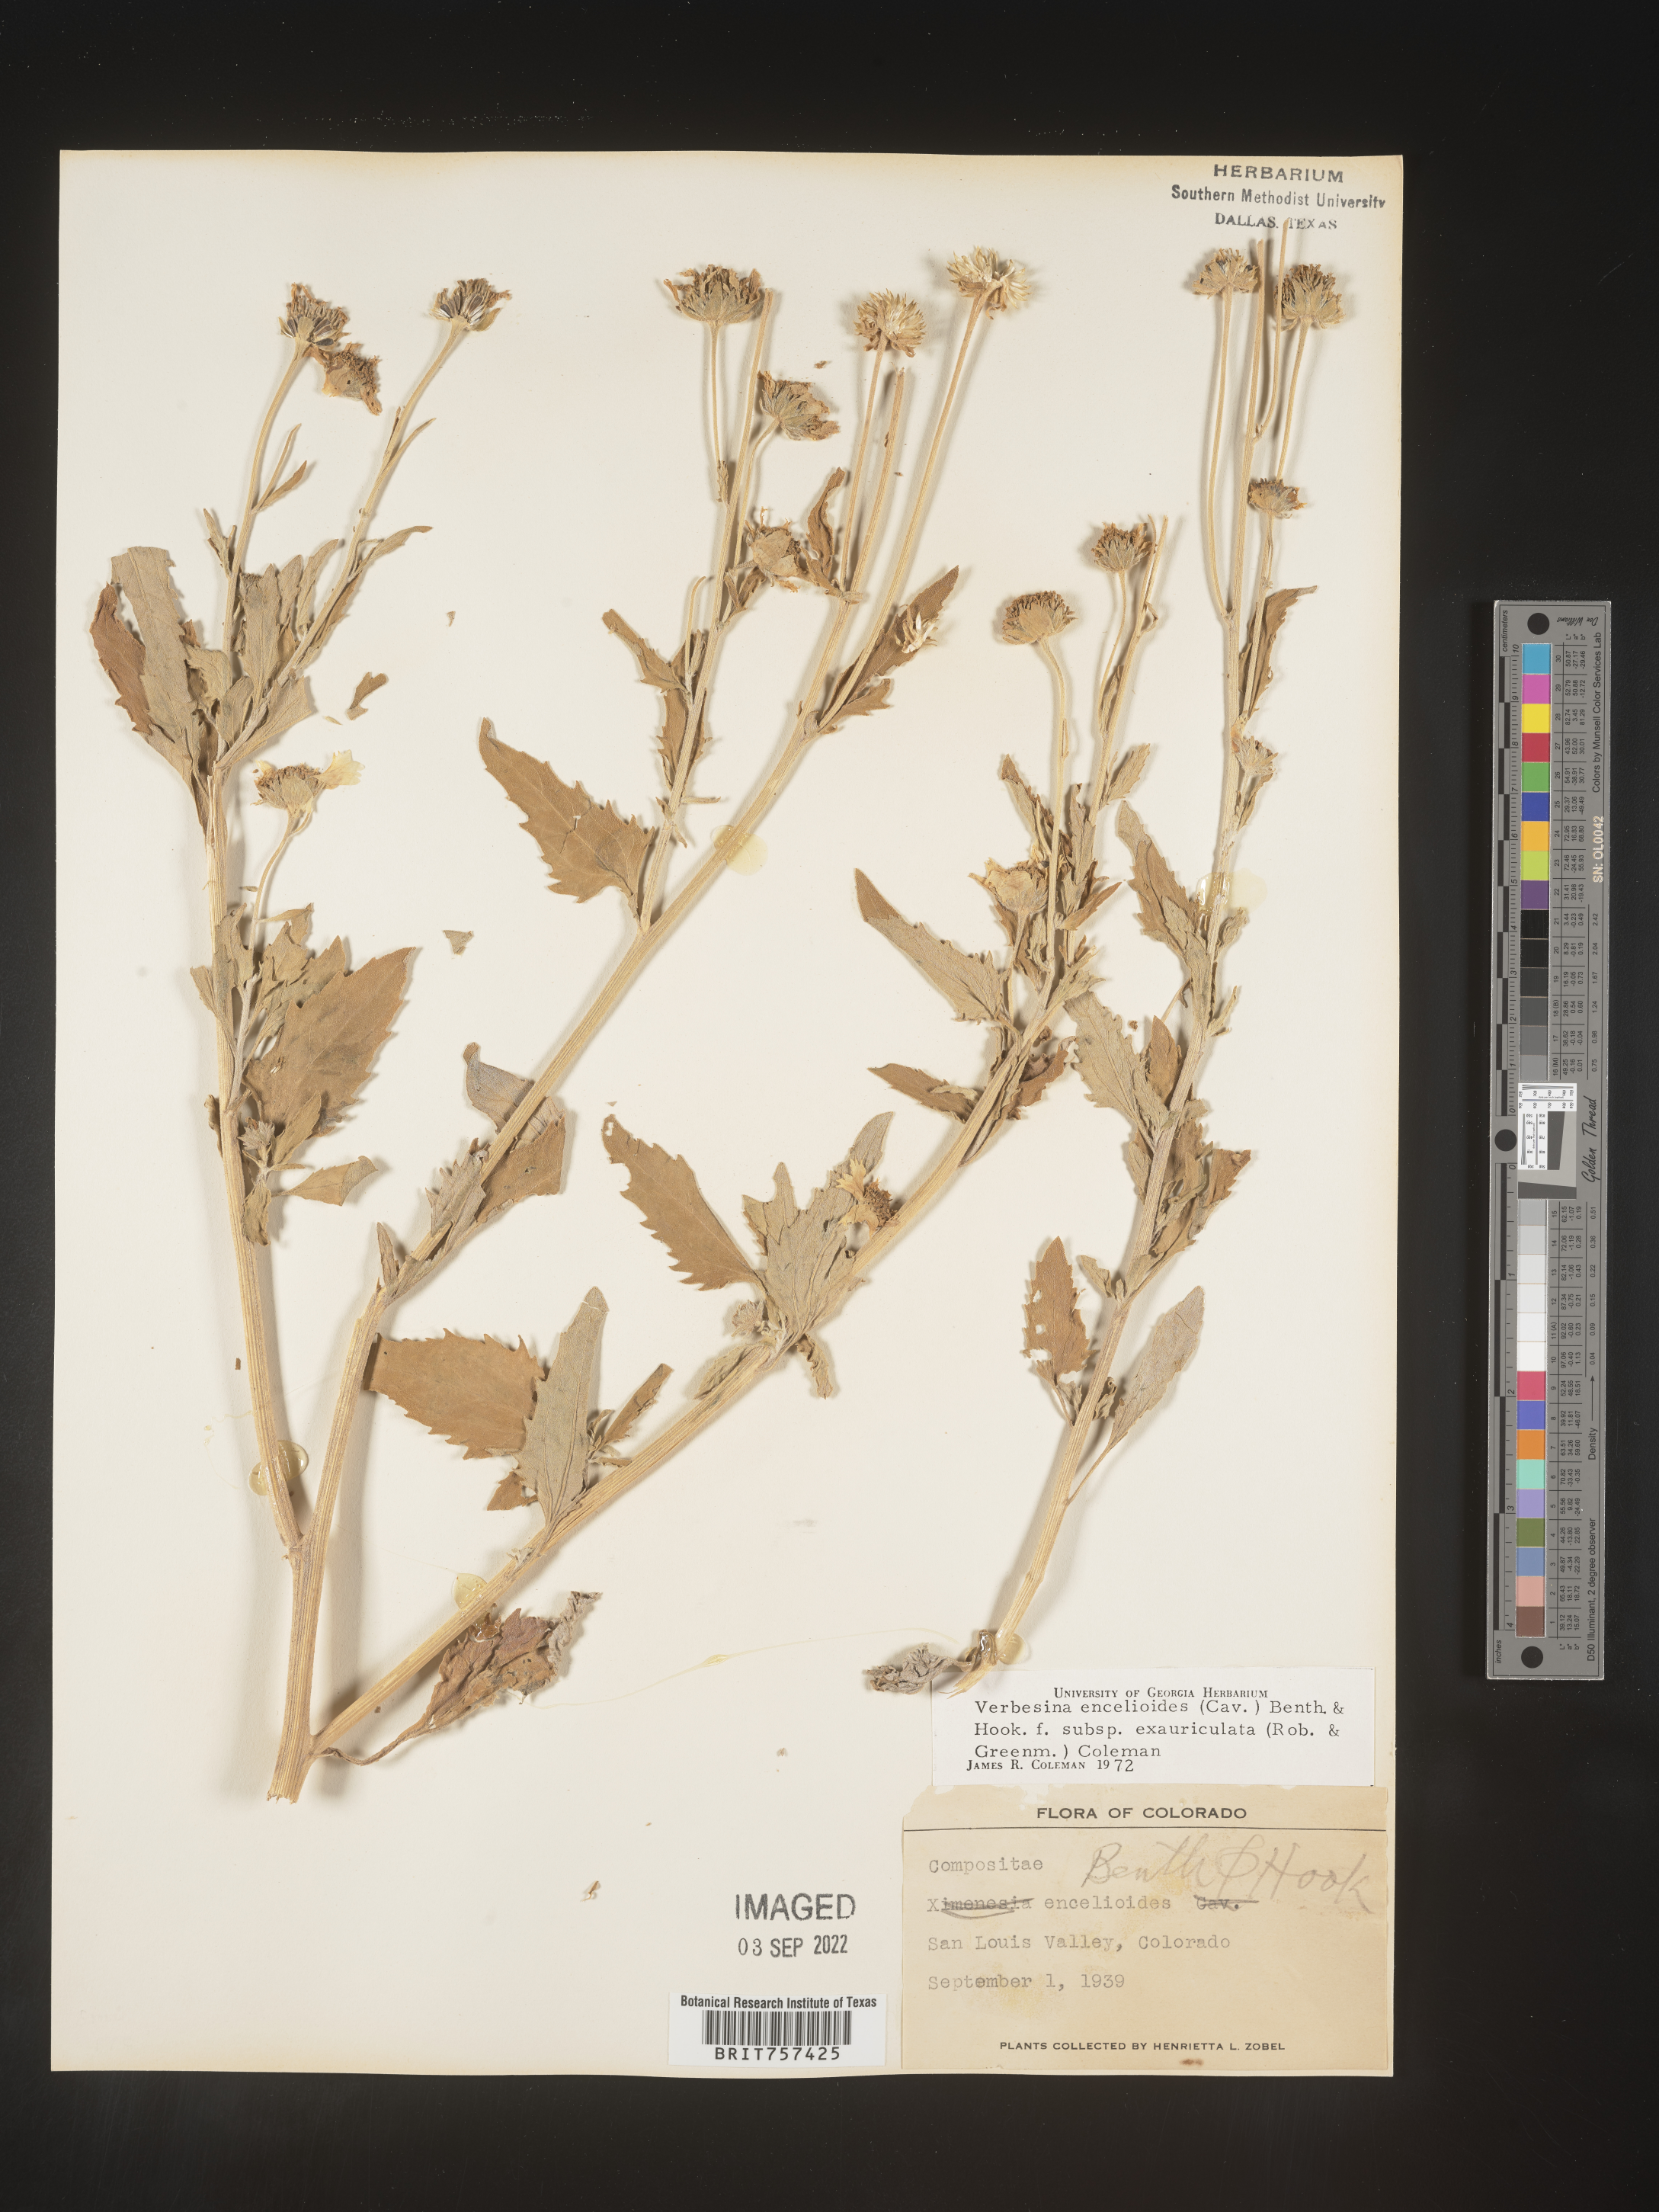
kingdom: Plantae
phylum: Tracheophyta
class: Magnoliopsida
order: Asterales
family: Asteraceae
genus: Verbesina
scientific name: Verbesina encelioides
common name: Golden crownbeard
